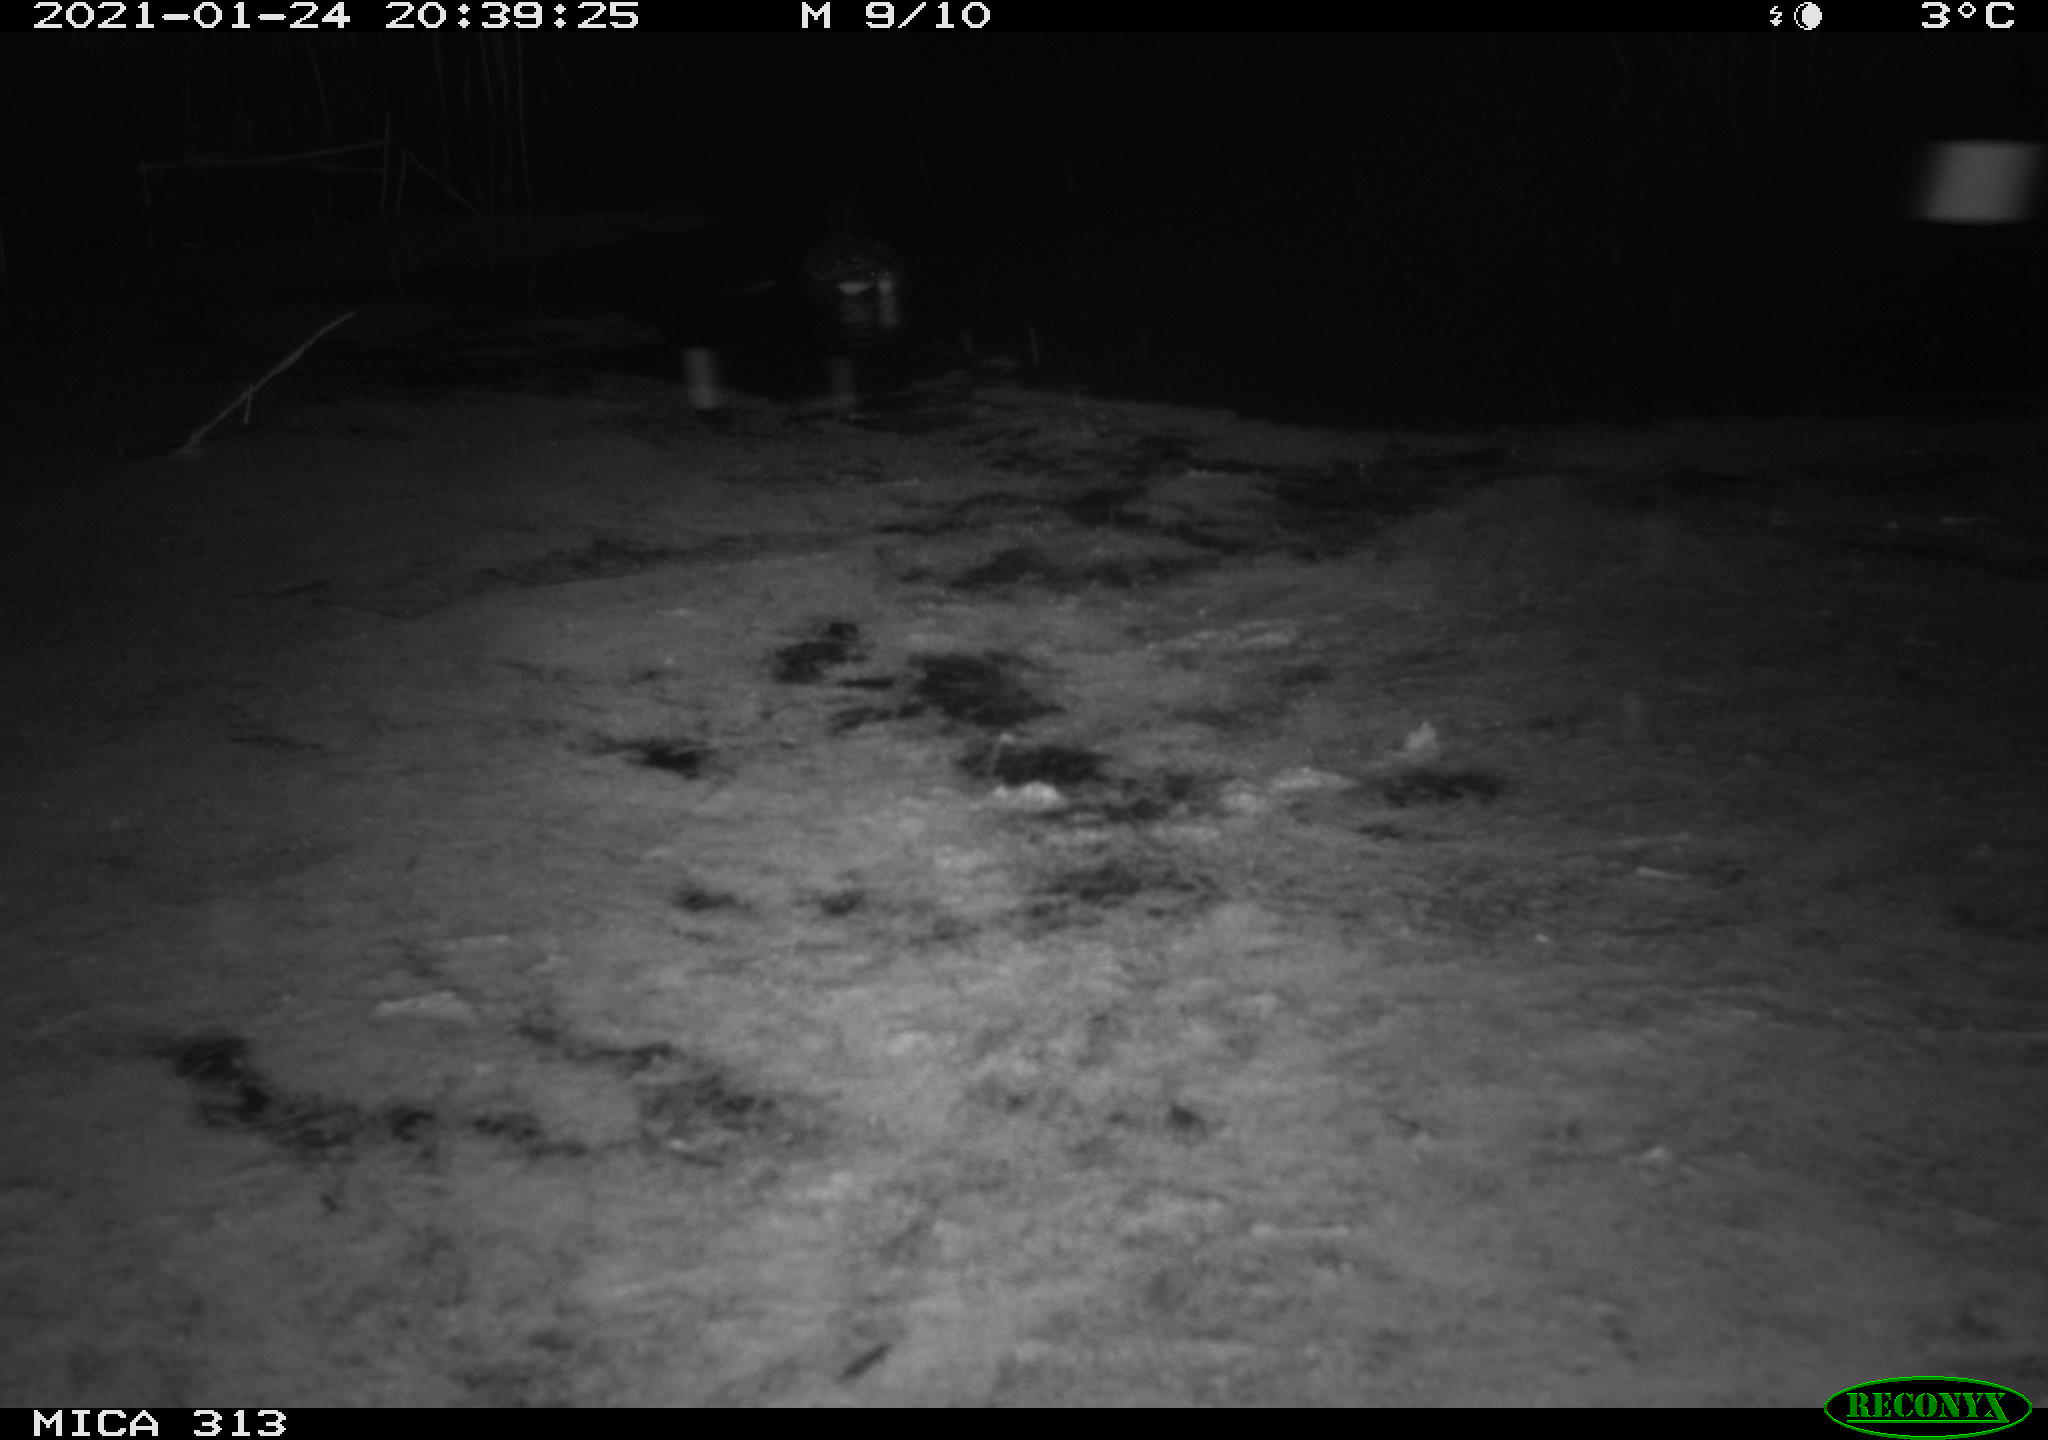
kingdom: Animalia
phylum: Chordata
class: Aves
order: Gruiformes
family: Rallidae
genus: Fulica
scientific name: Fulica atra
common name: Eurasian coot
